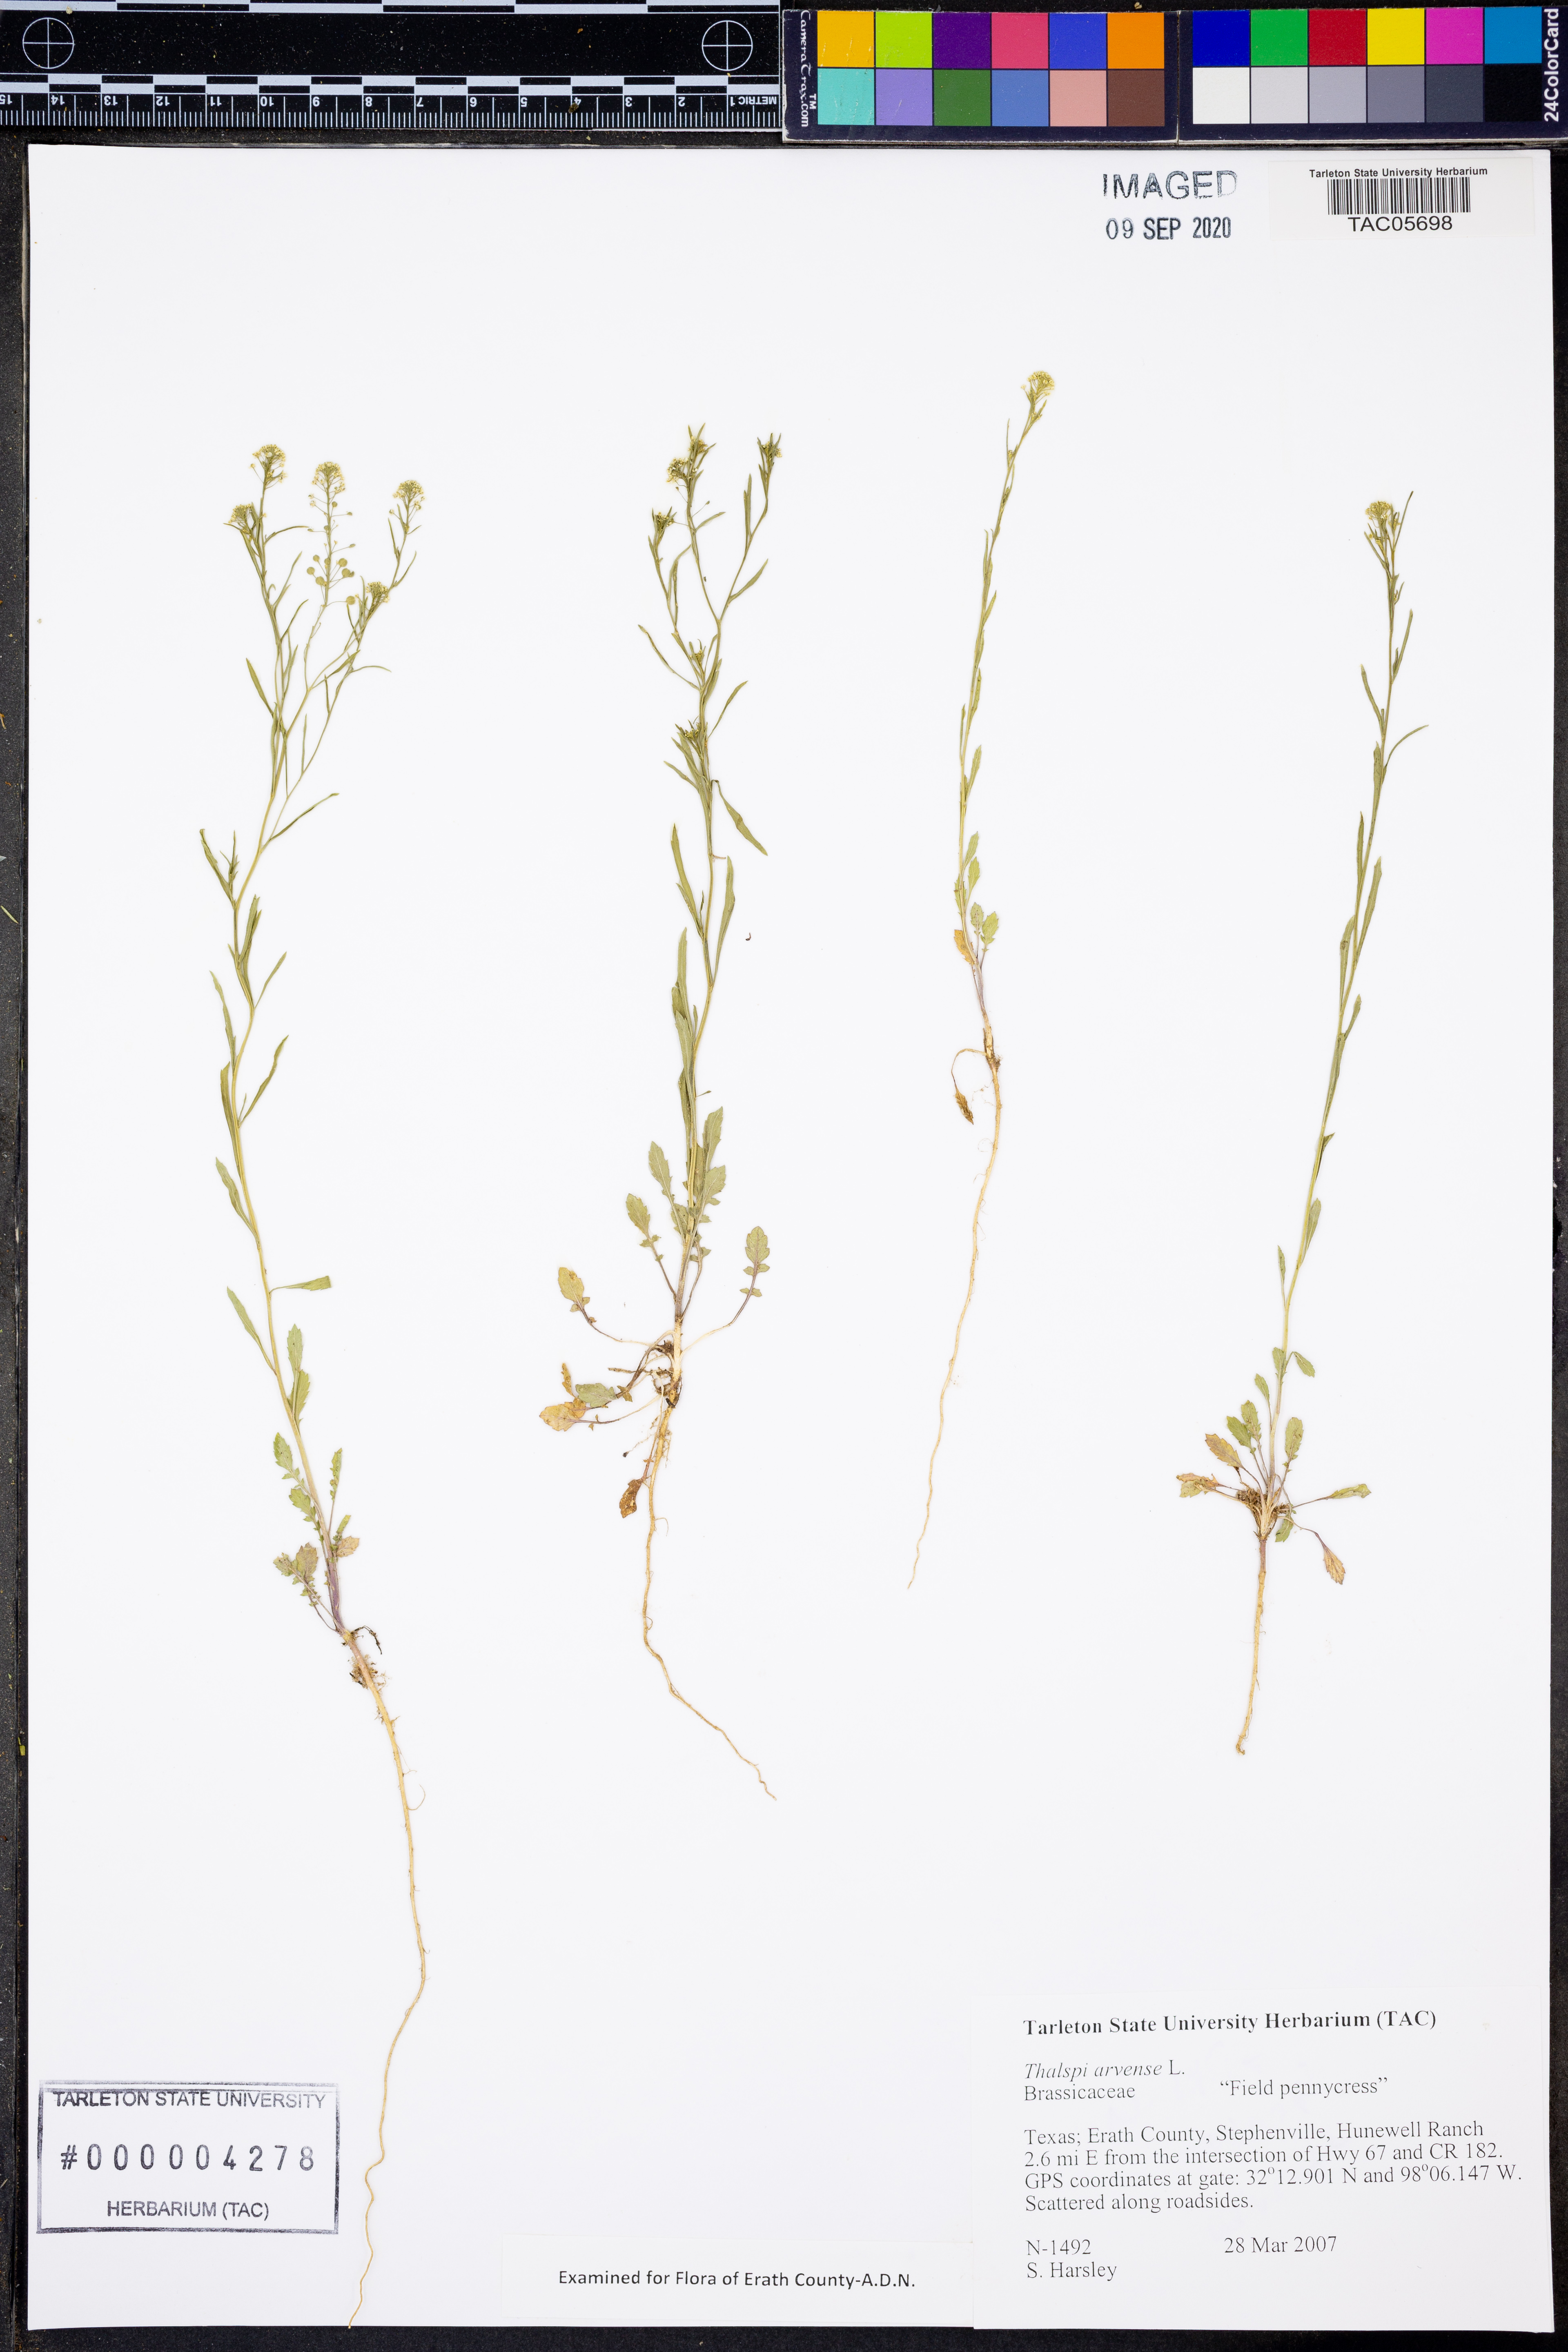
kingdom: Plantae
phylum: Tracheophyta
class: Magnoliopsida
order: Brassicales
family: Brassicaceae
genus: Thlaspi
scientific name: Thlaspi arvense
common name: Field pennycress
